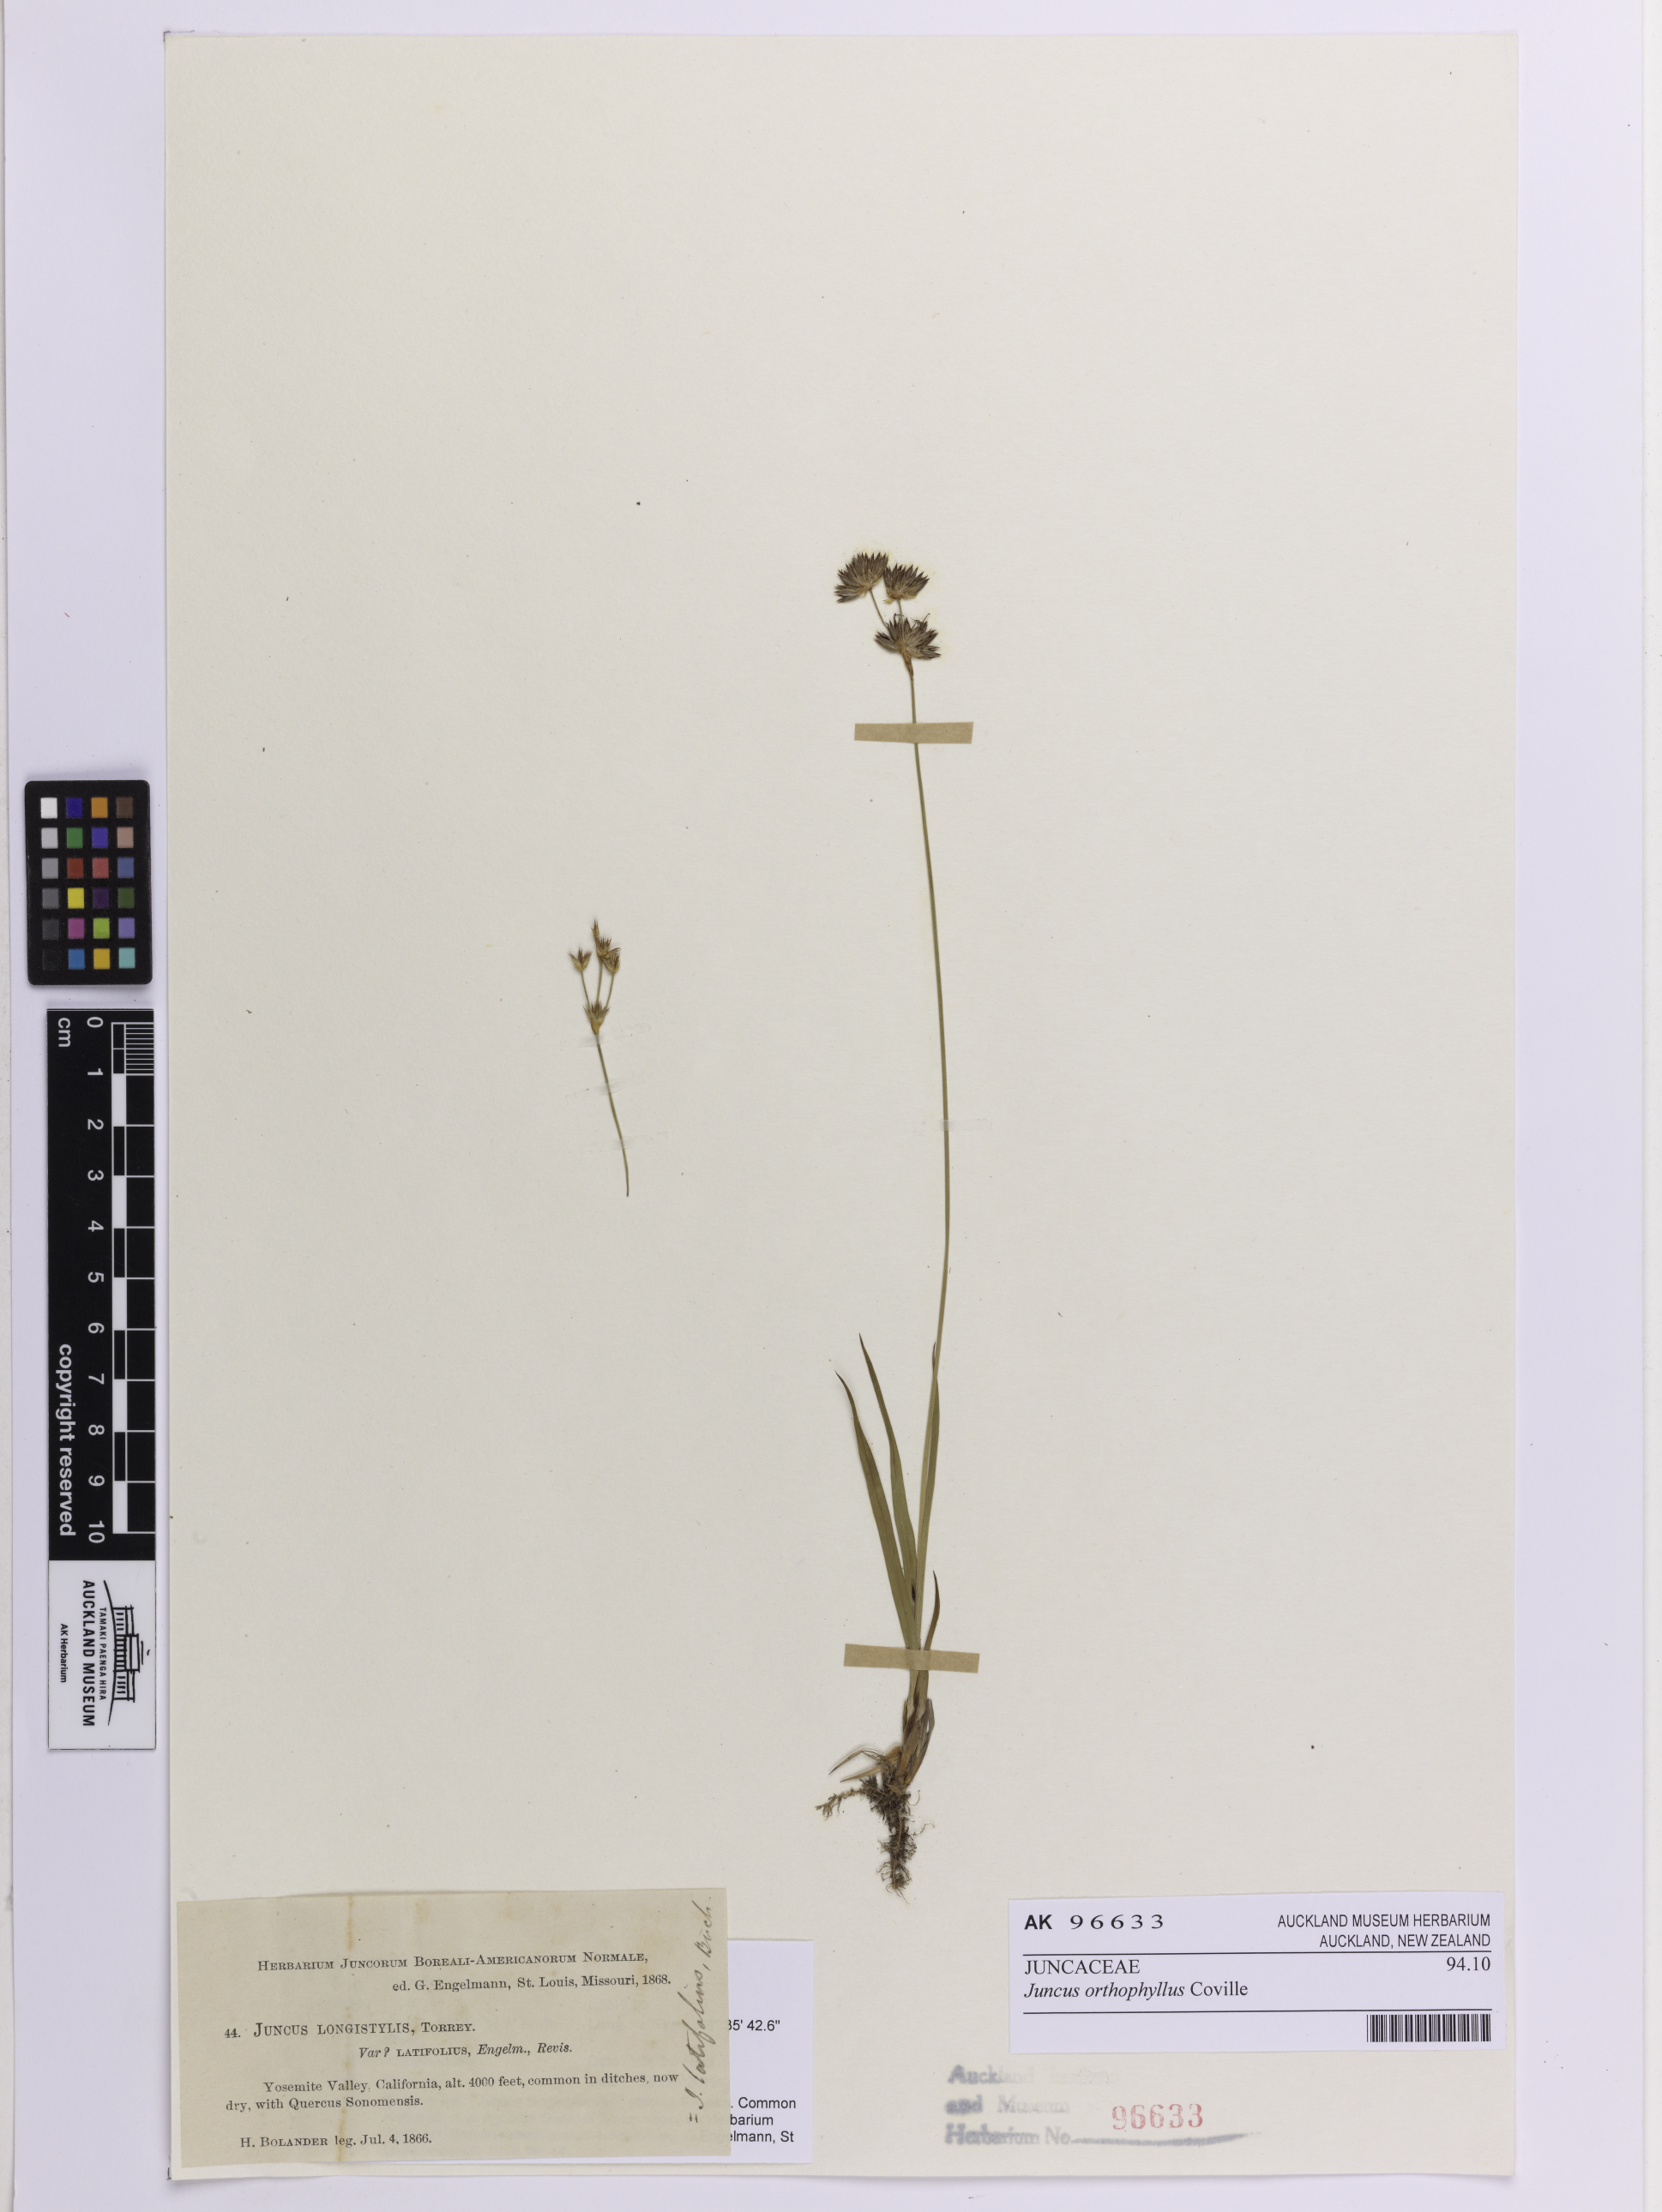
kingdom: Plantae
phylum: Tracheophyta
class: Liliopsida
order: Poales
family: Juncaceae
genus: Juncus
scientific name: Juncus orthophyllus
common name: Straight-leaf rush
